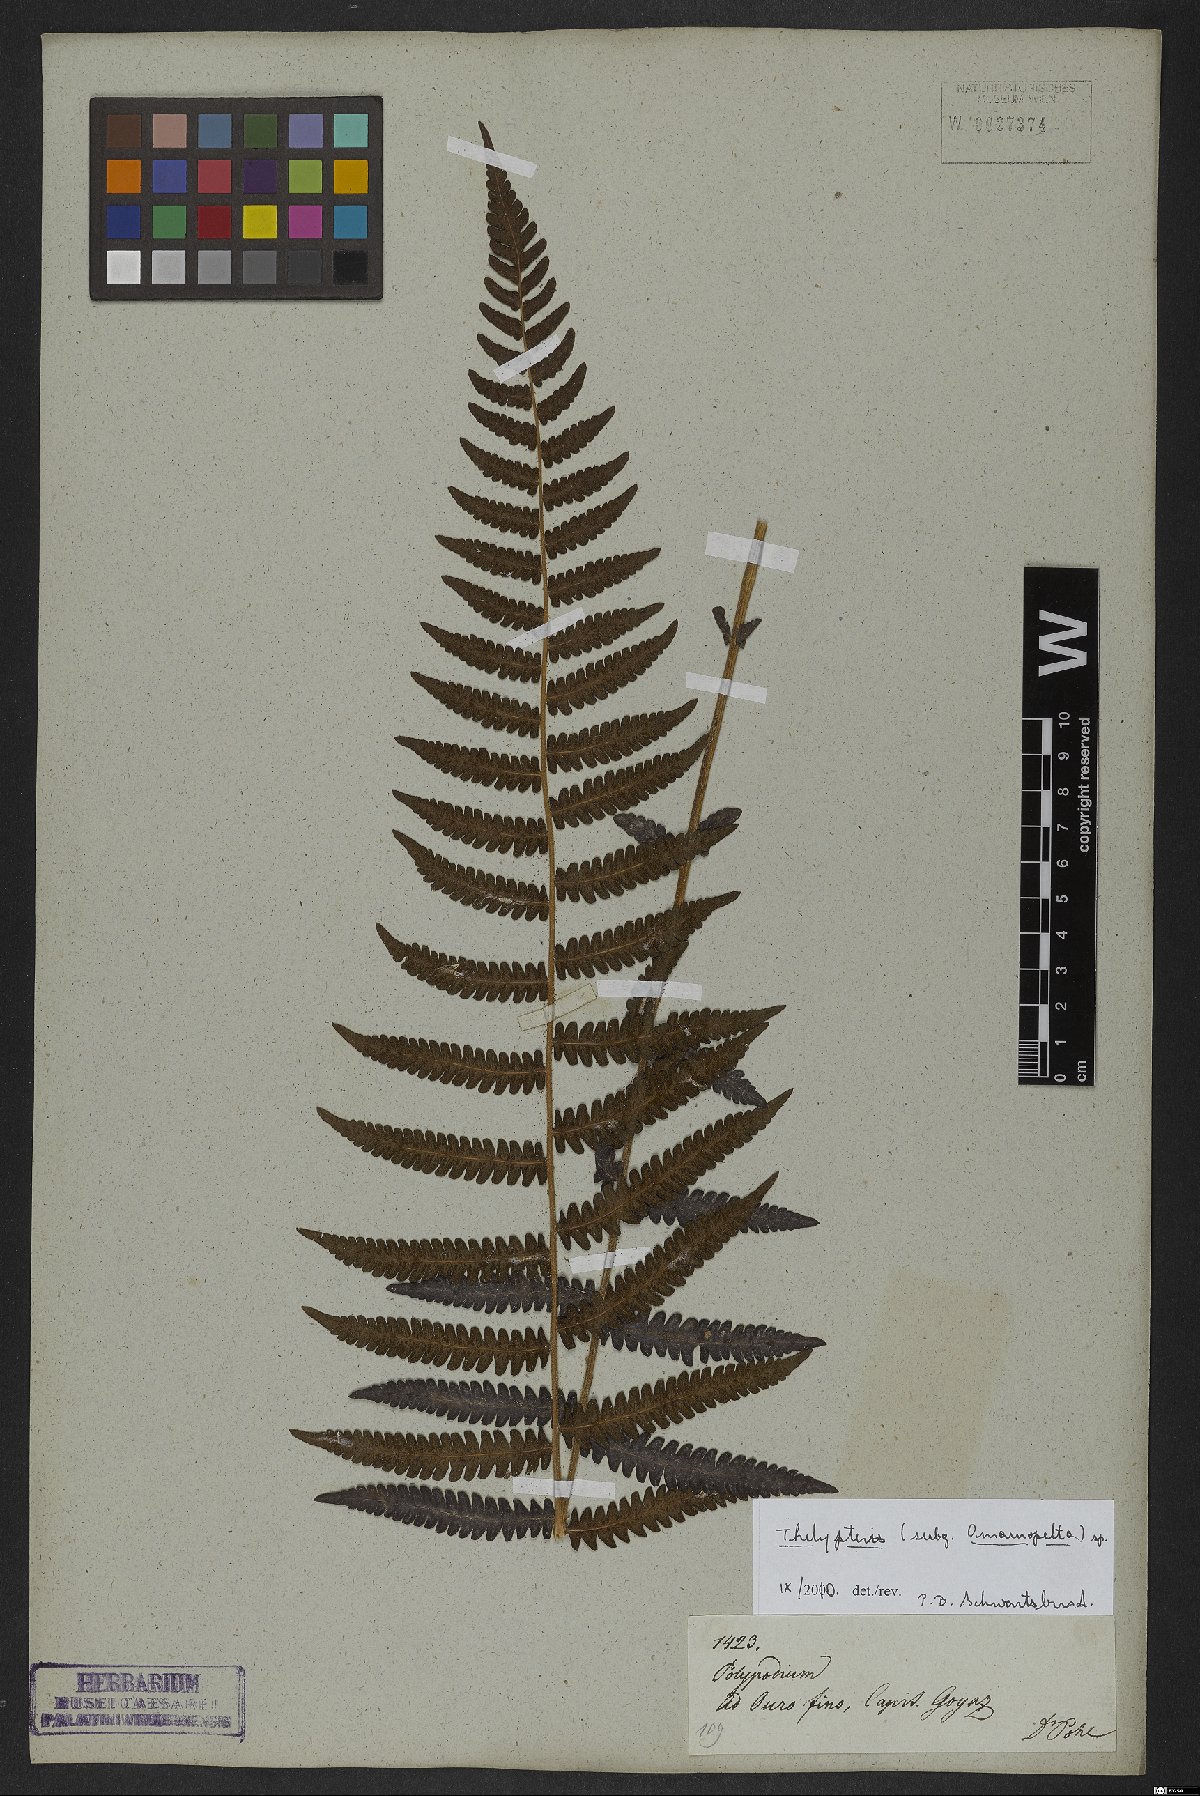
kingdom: Plantae
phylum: Tracheophyta
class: Polypodiopsida
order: Polypodiales
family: Thelypteridaceae
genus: Thelypteris
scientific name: Thelypteris
